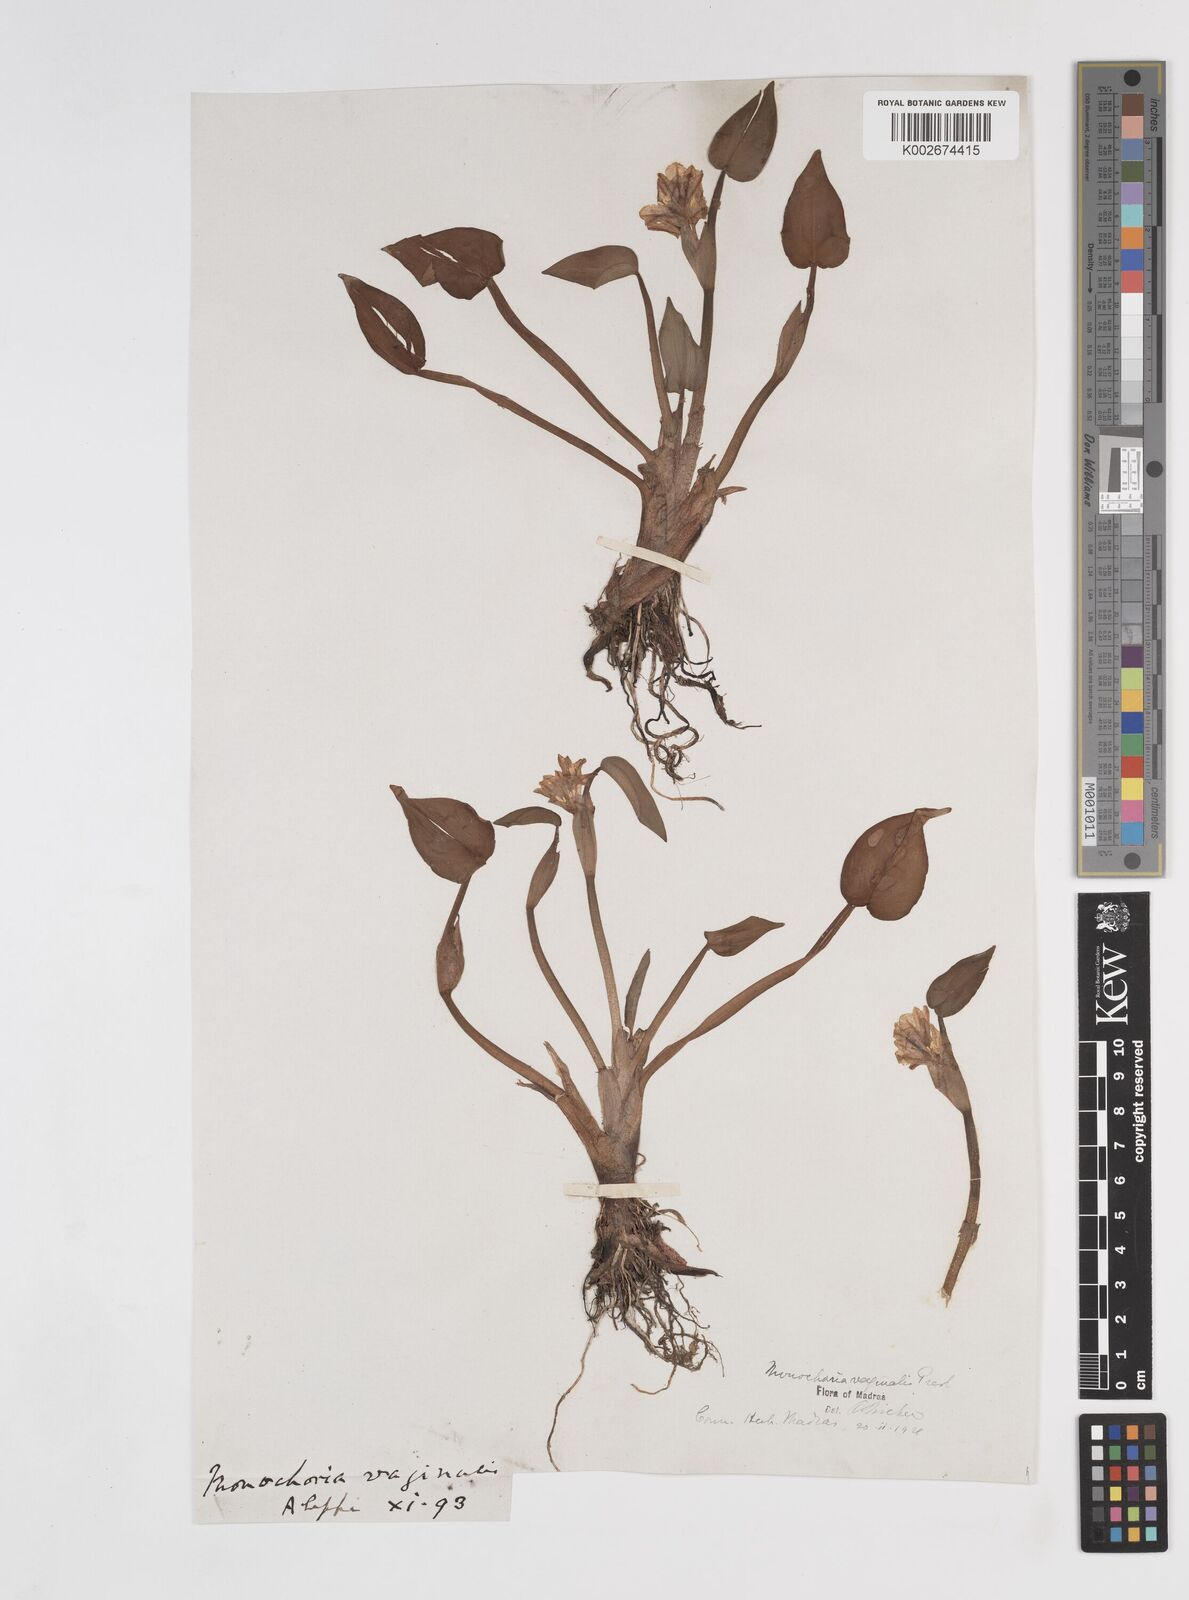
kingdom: Plantae
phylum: Tracheophyta
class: Liliopsida
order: Commelinales
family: Pontederiaceae
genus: Pontederia
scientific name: Pontederia vaginalis
